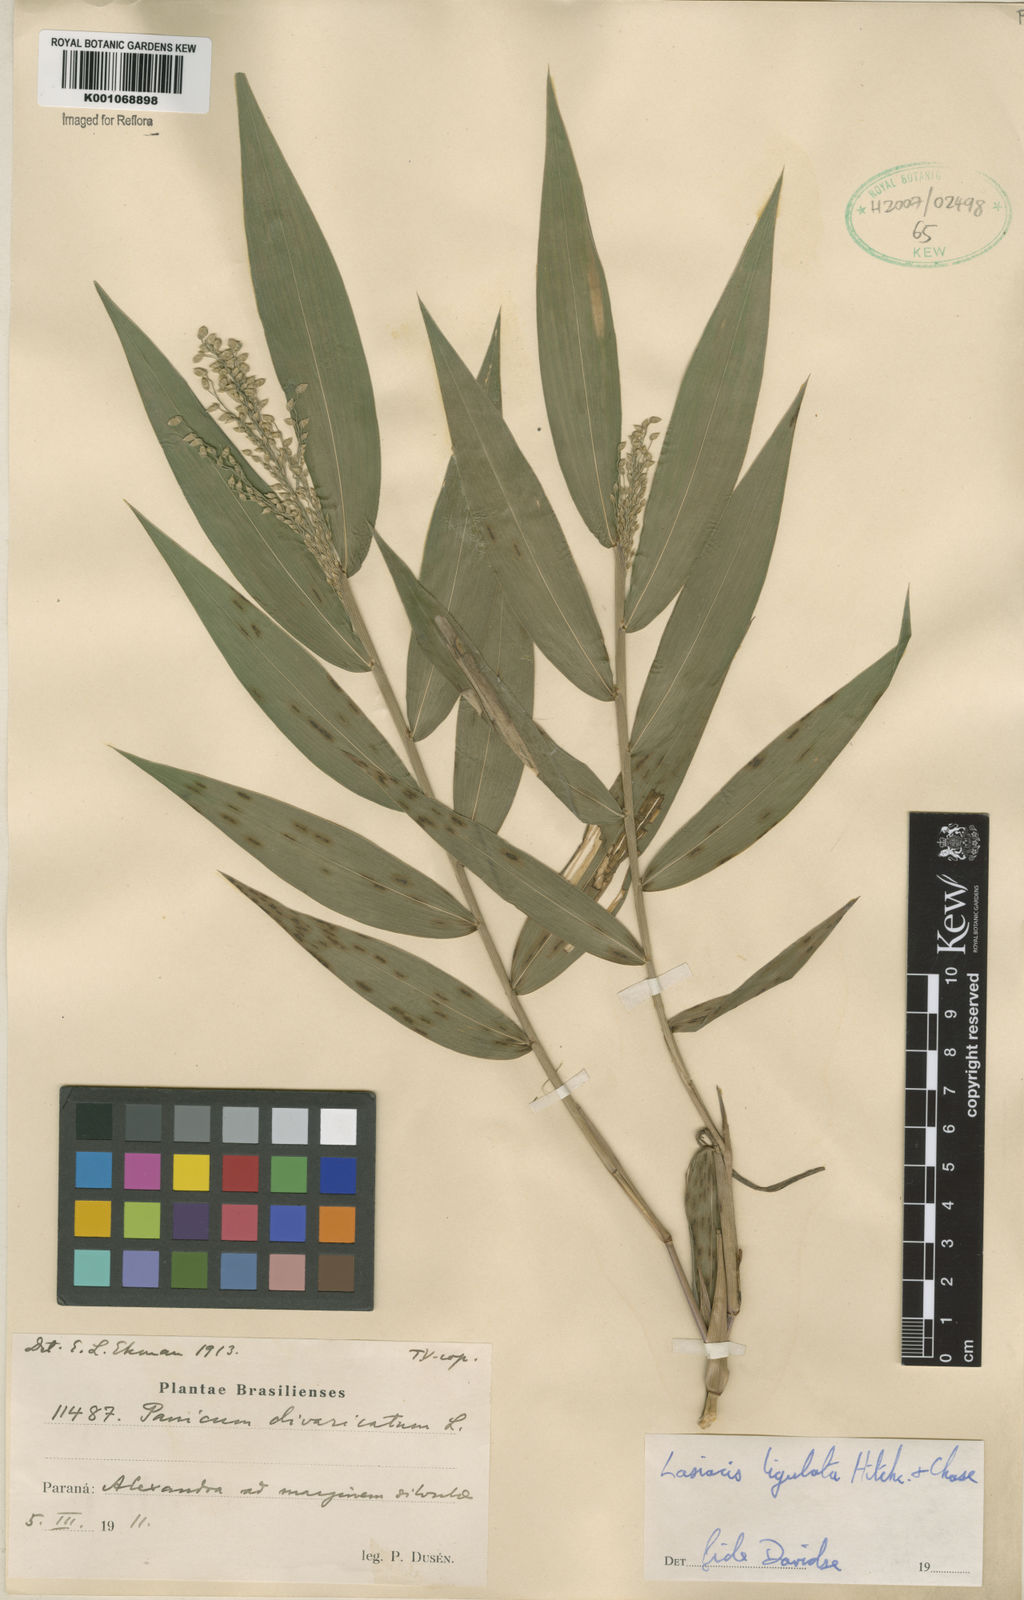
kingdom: Plantae
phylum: Tracheophyta
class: Liliopsida
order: Poales
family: Poaceae
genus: Lasiacis
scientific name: Lasiacis ligulata
